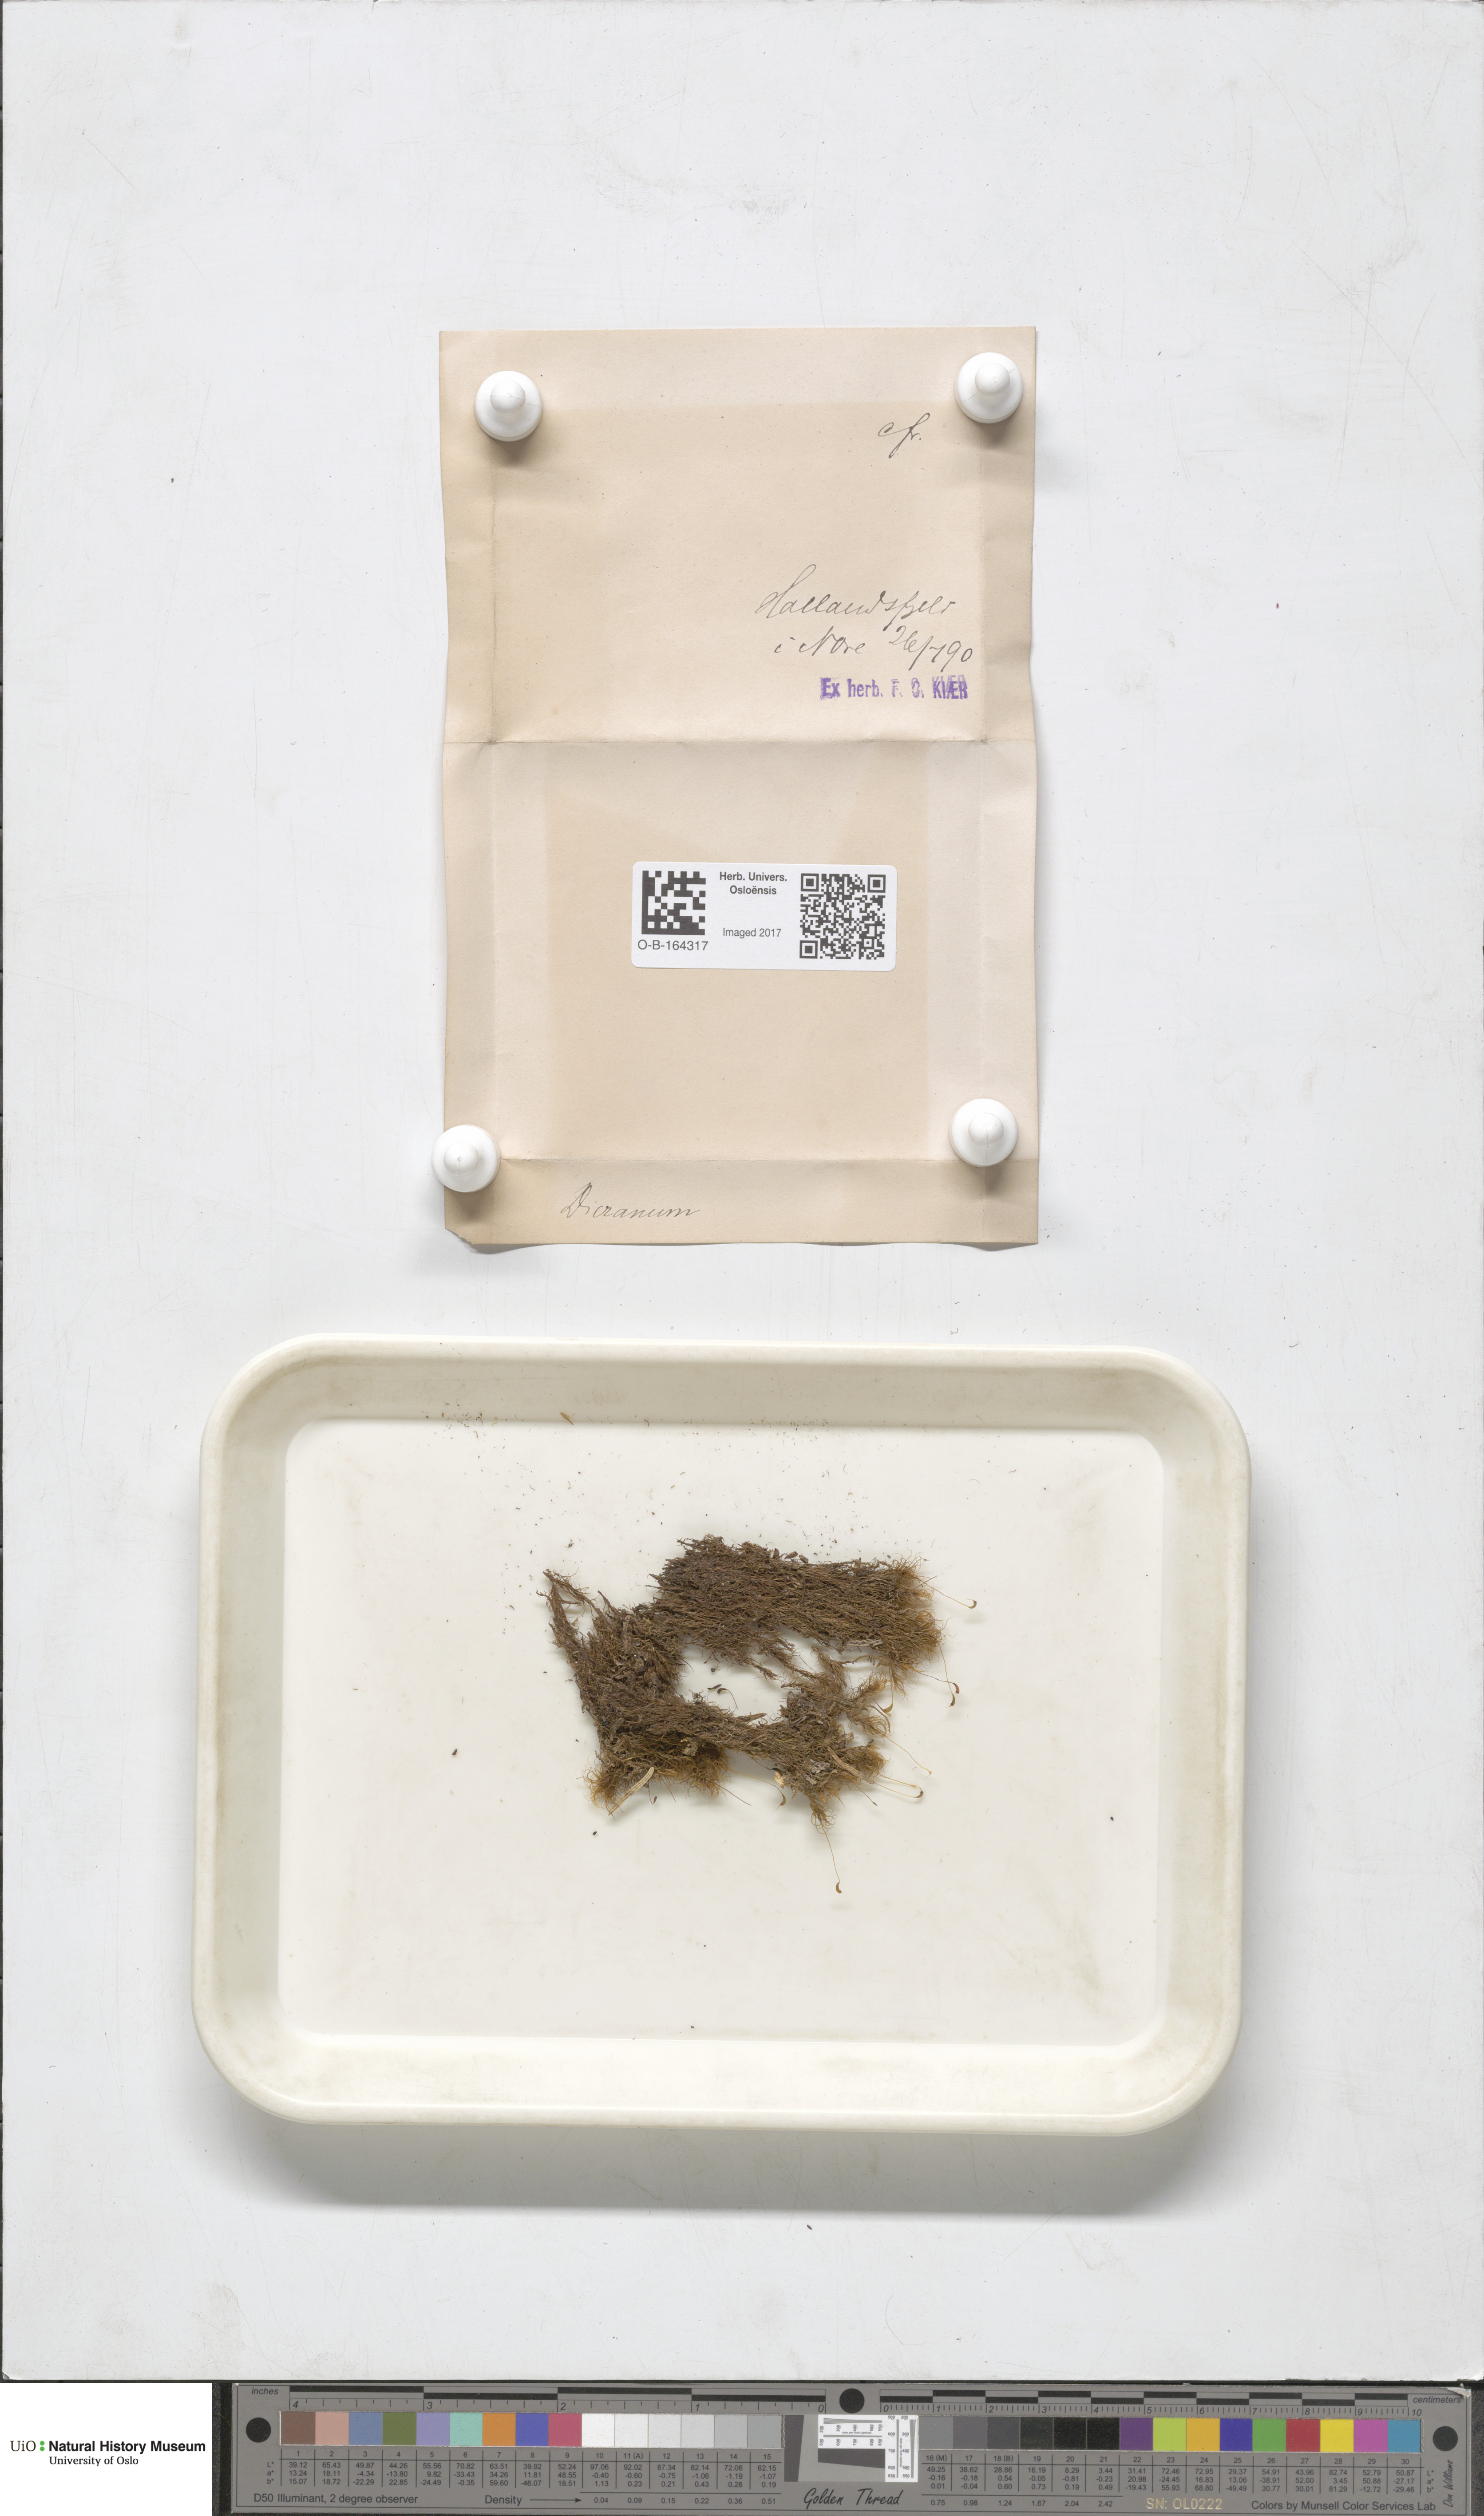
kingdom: Plantae
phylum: Bryophyta
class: Bryopsida
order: Dicranales
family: Dicranaceae
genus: Dicranum
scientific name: Dicranum
